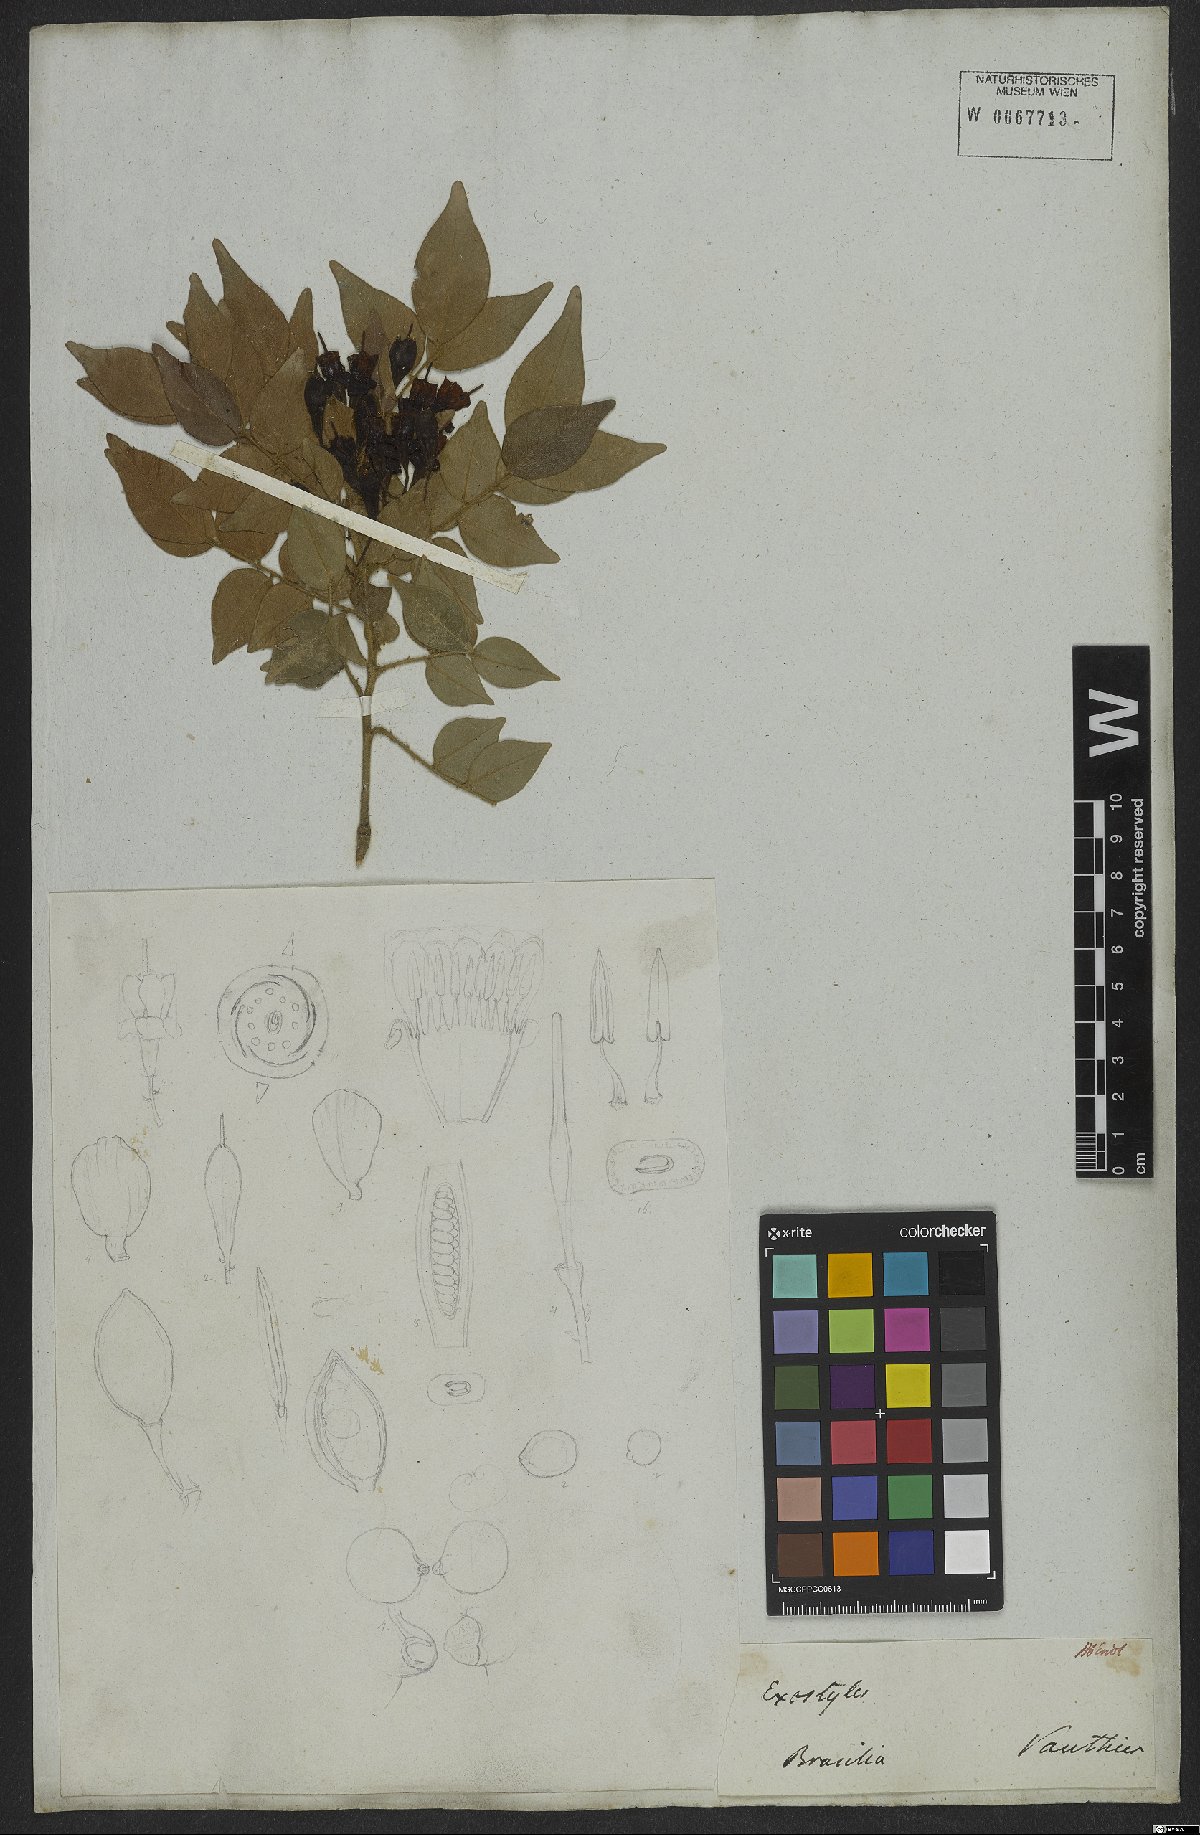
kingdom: Plantae
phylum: Tracheophyta
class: Magnoliopsida
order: Fabales
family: Fabaceae
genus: Exostyles
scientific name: Exostyles venusta
